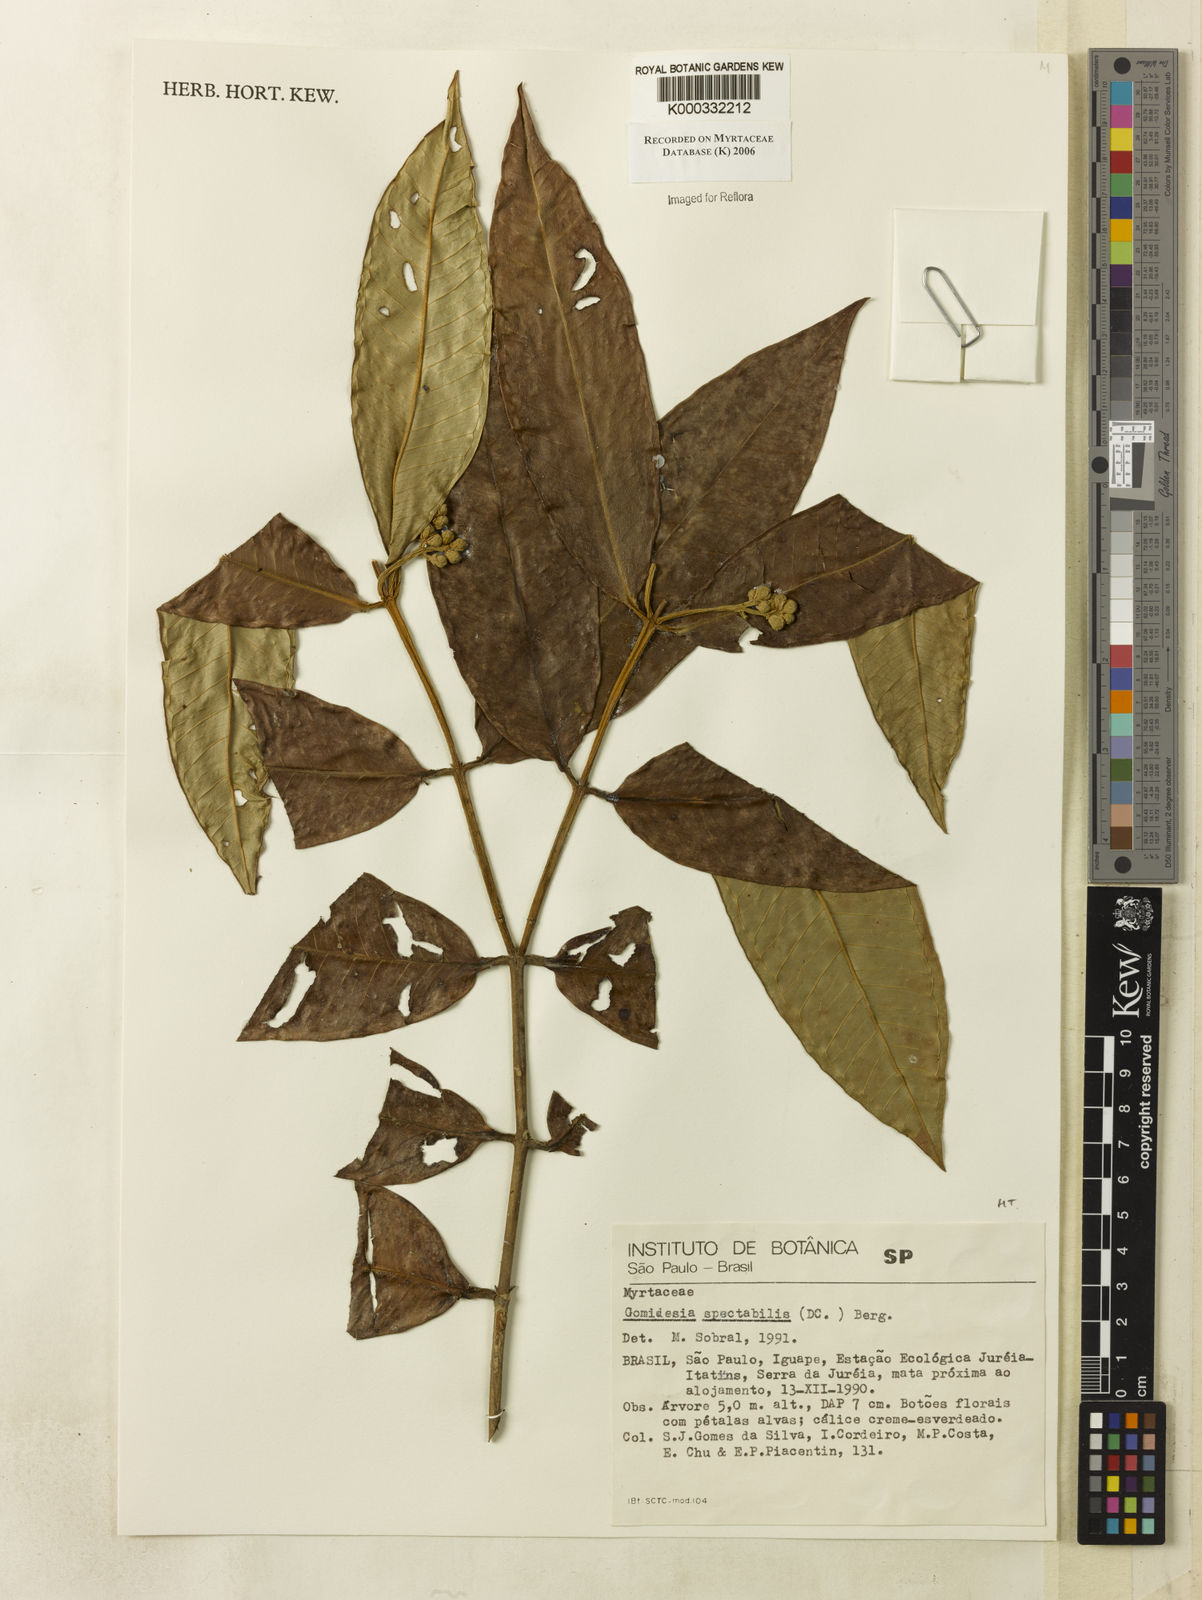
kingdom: Plantae
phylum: Tracheophyta
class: Magnoliopsida
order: Myrtales
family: Myrtaceae
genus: Myrcia
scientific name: Myrcia spectabilis
